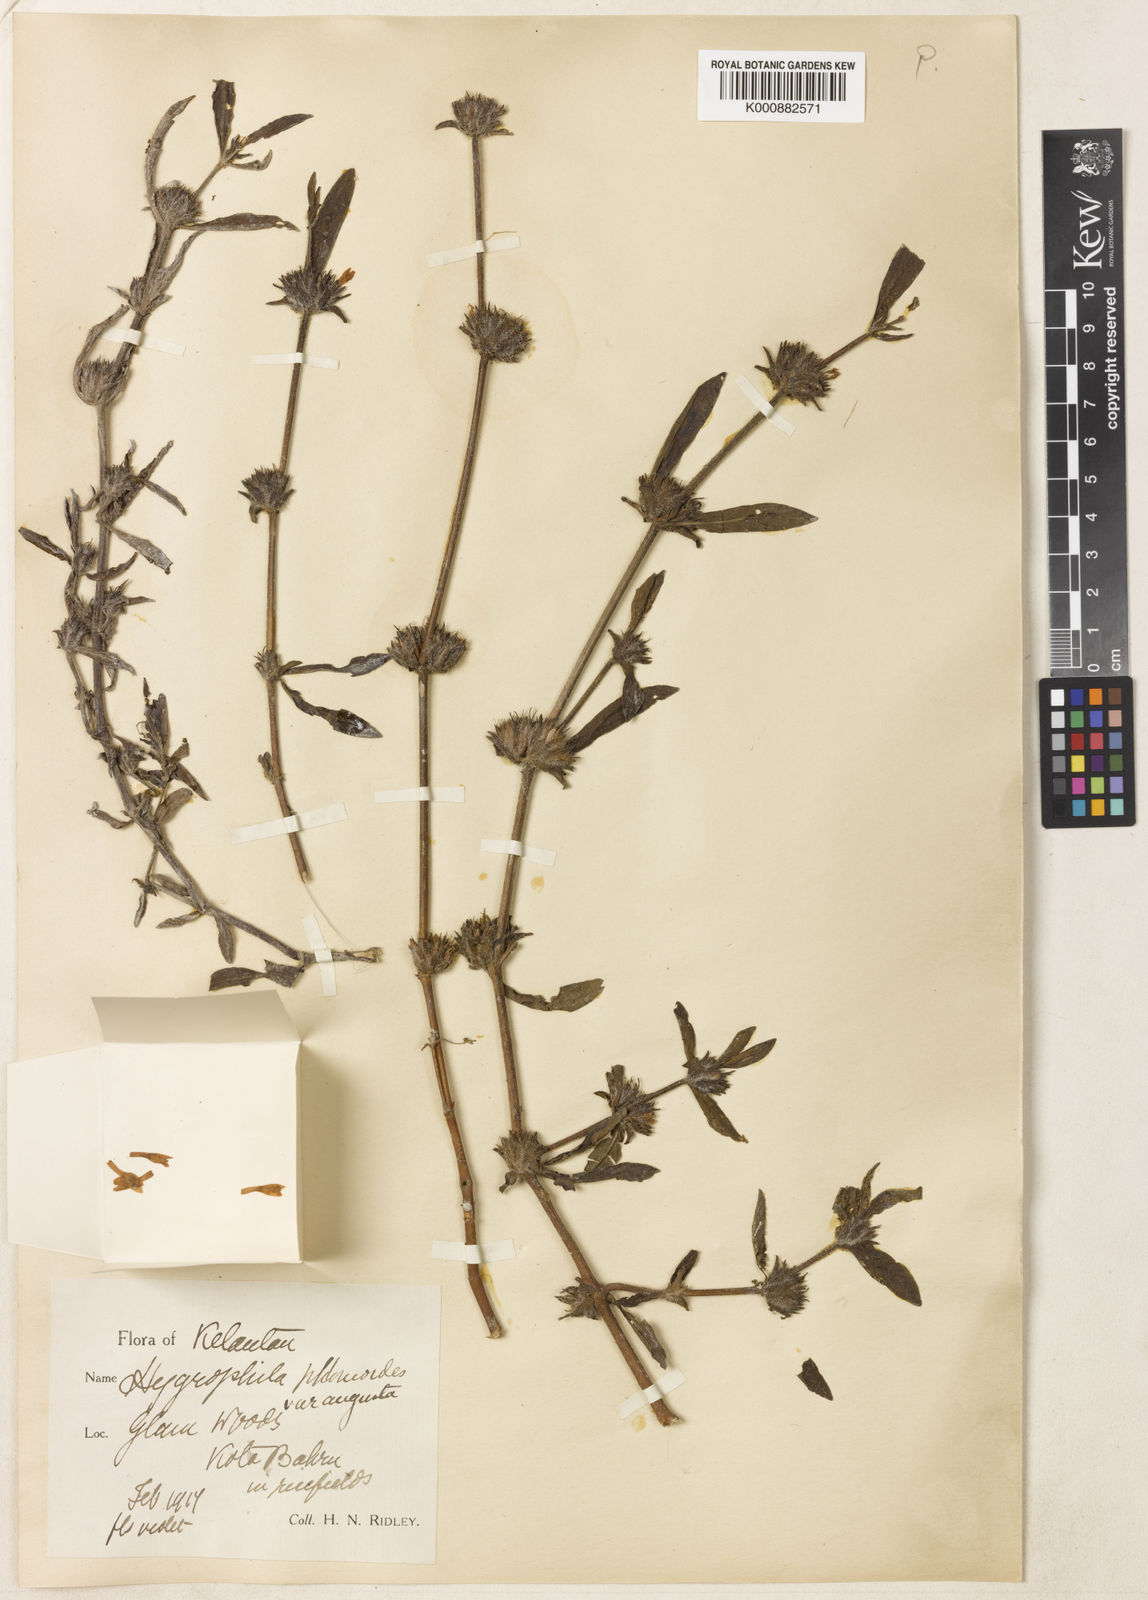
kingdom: Plantae
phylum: Tracheophyta
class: Magnoliopsida
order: Lamiales
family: Acanthaceae
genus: Hygrophila
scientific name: Hygrophila
